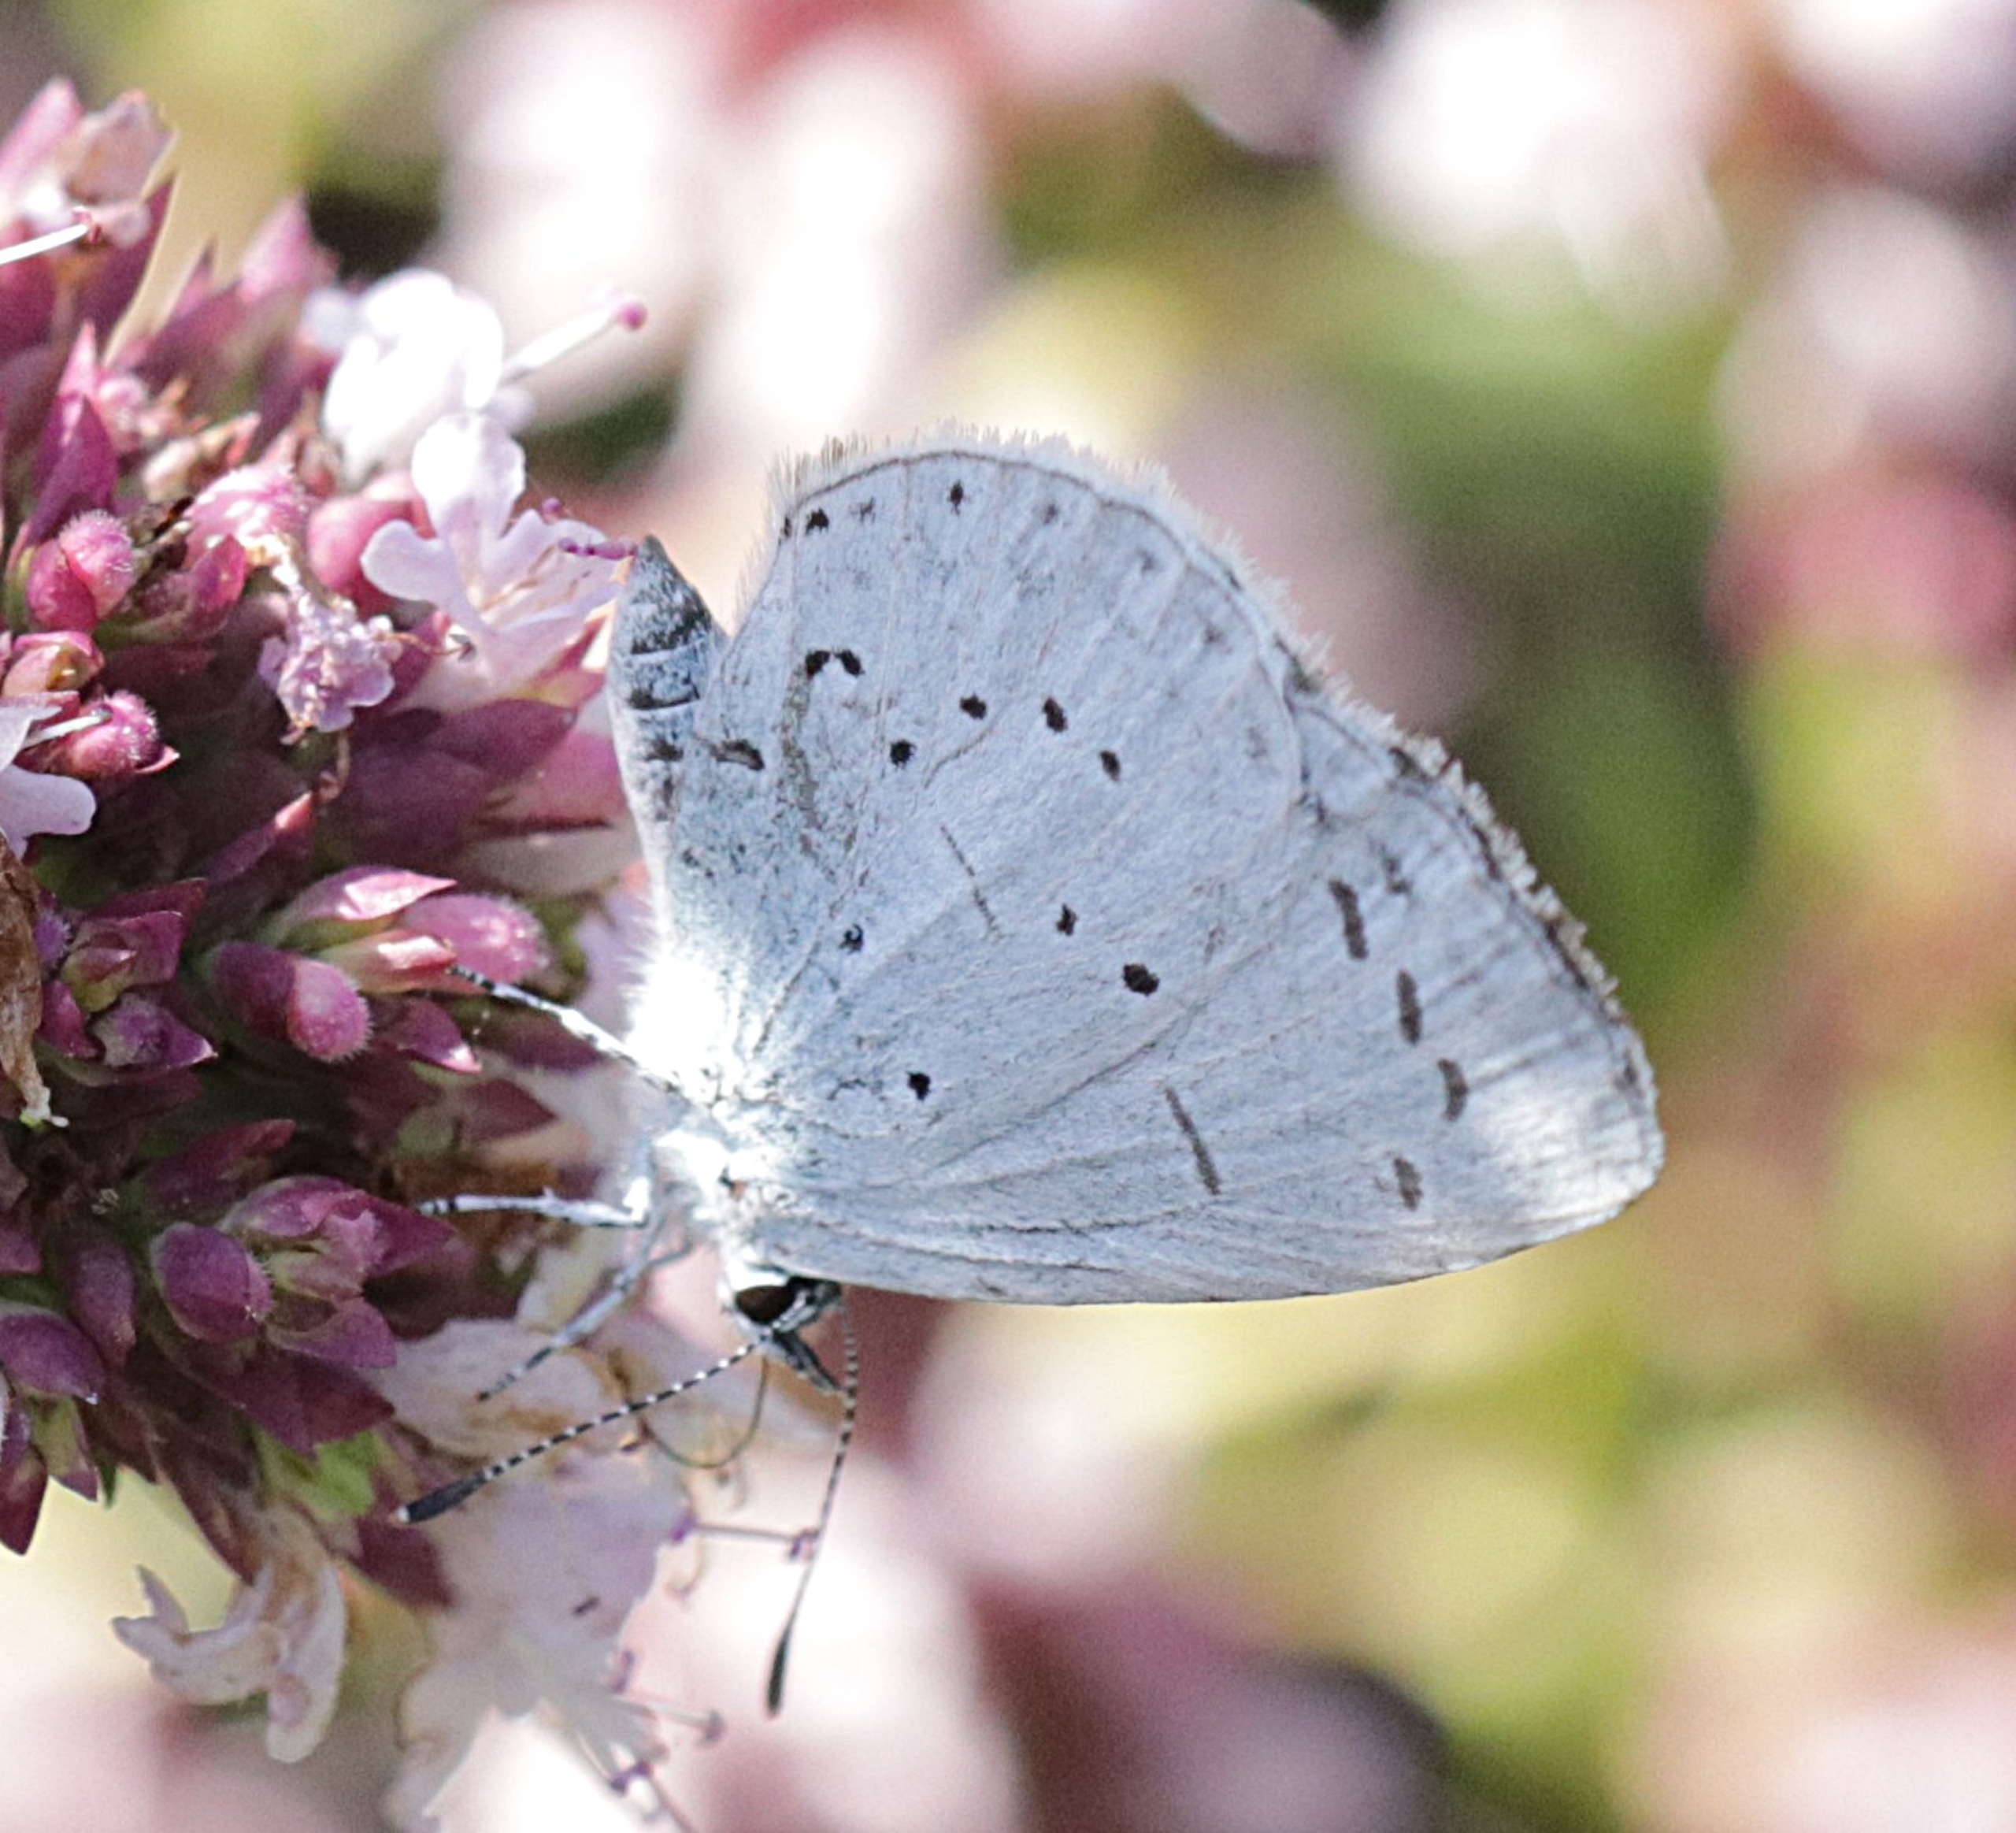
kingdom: Animalia
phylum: Arthropoda
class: Insecta
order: Lepidoptera
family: Lycaenidae
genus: Celastrina
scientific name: Celastrina argiolus
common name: Skovblåfugl
